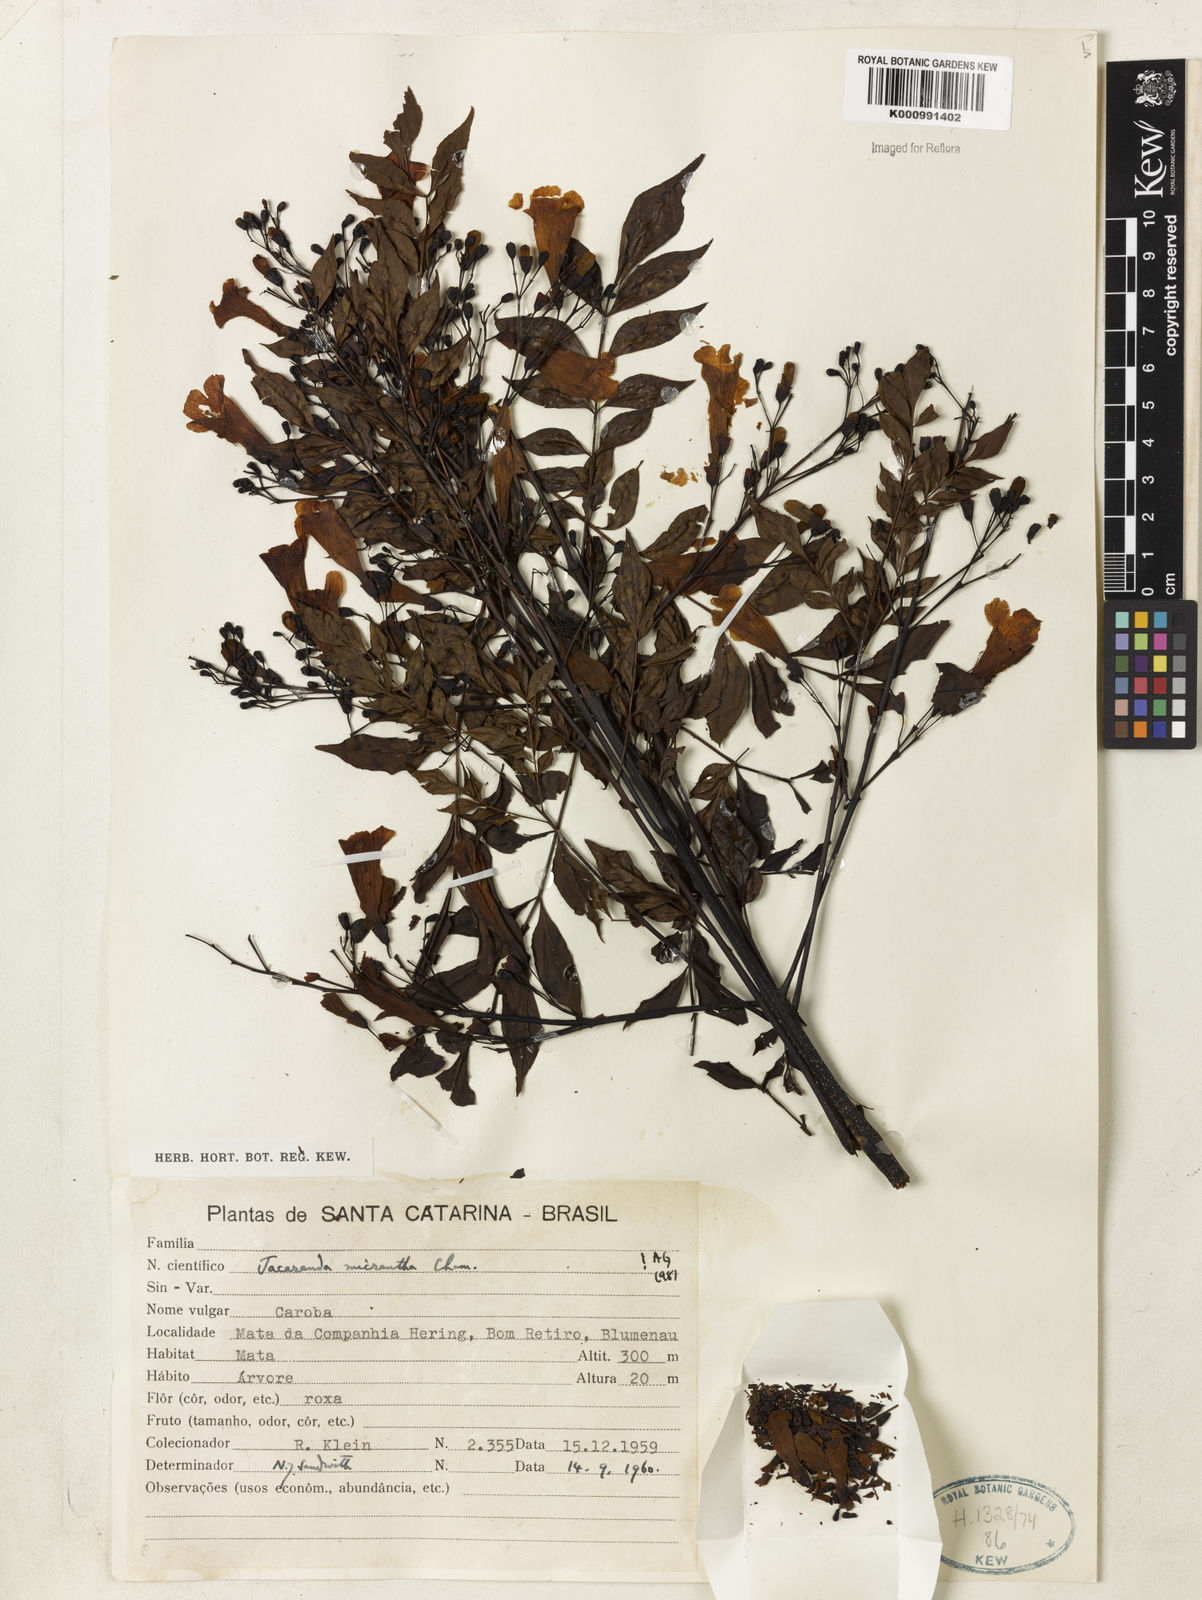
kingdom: Plantae
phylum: Tracheophyta
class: Magnoliopsida
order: Lamiales
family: Bignoniaceae
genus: Jacaranda
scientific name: Jacaranda micrantha
